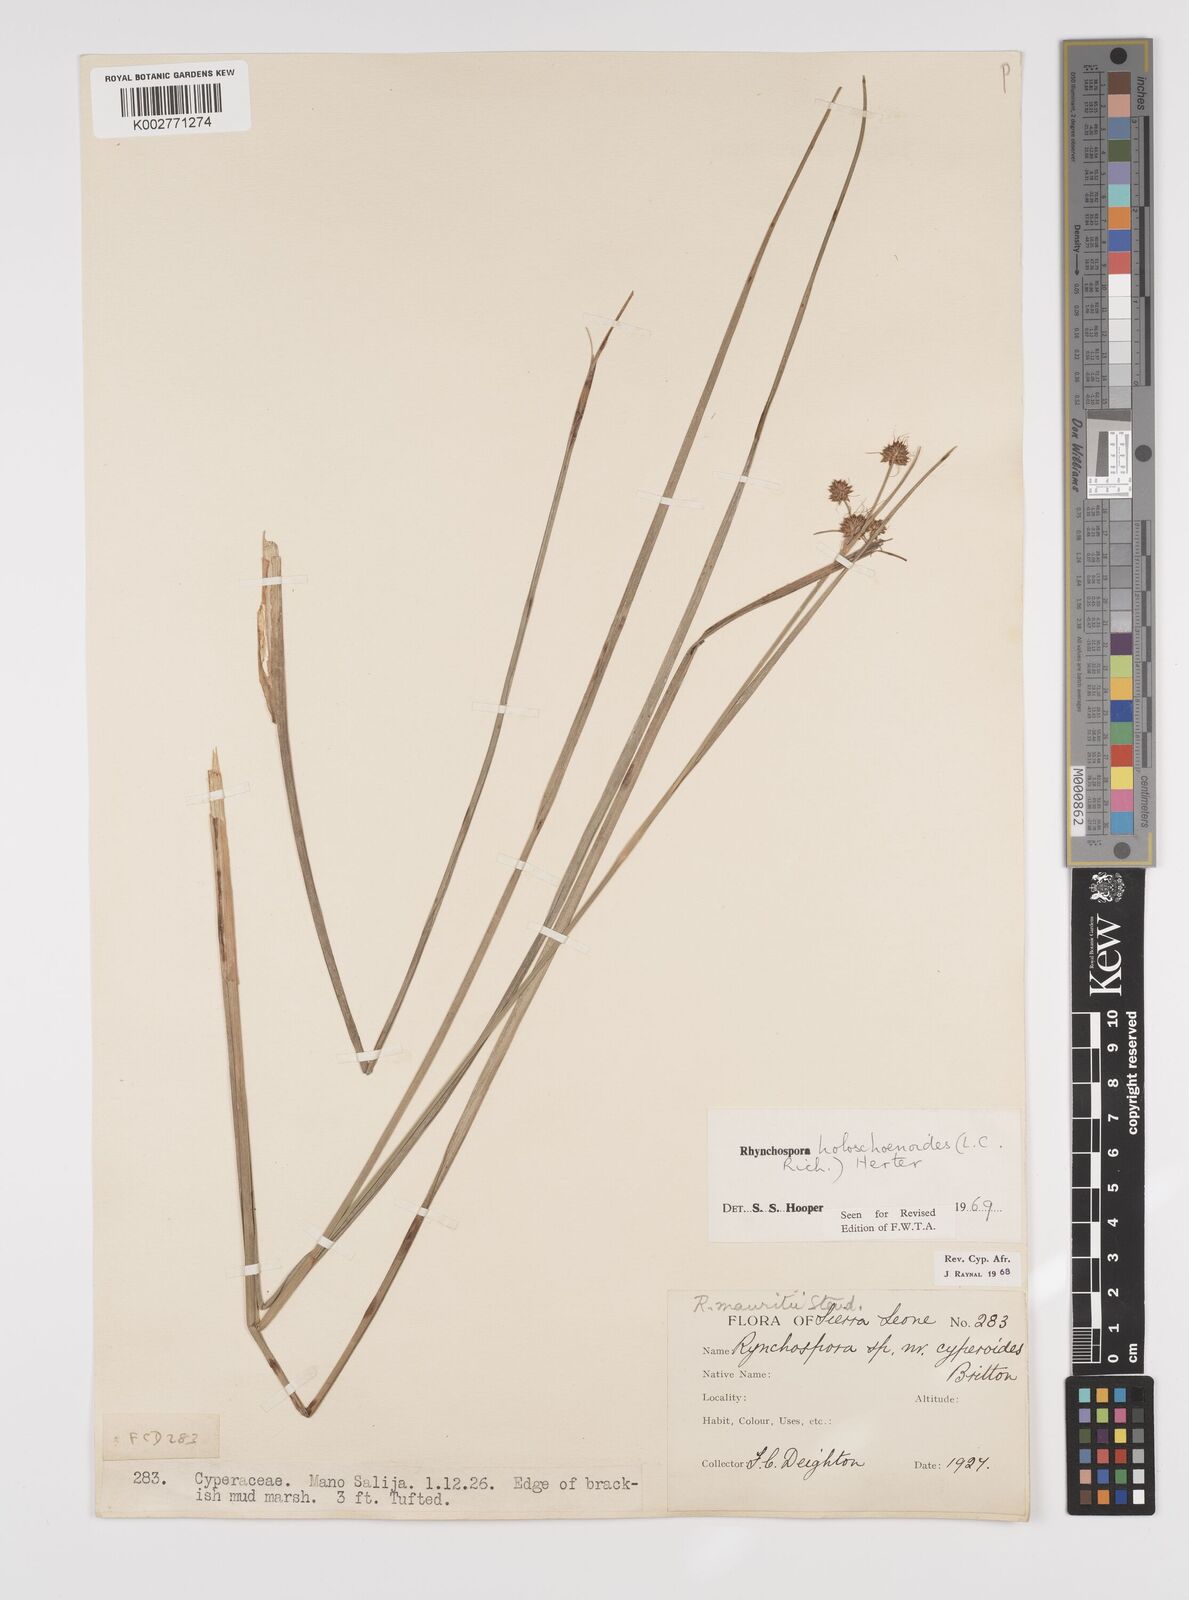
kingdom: Plantae
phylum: Tracheophyta
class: Liliopsida
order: Poales
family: Cyperaceae
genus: Rhynchospora
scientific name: Rhynchospora holoschoenoides
